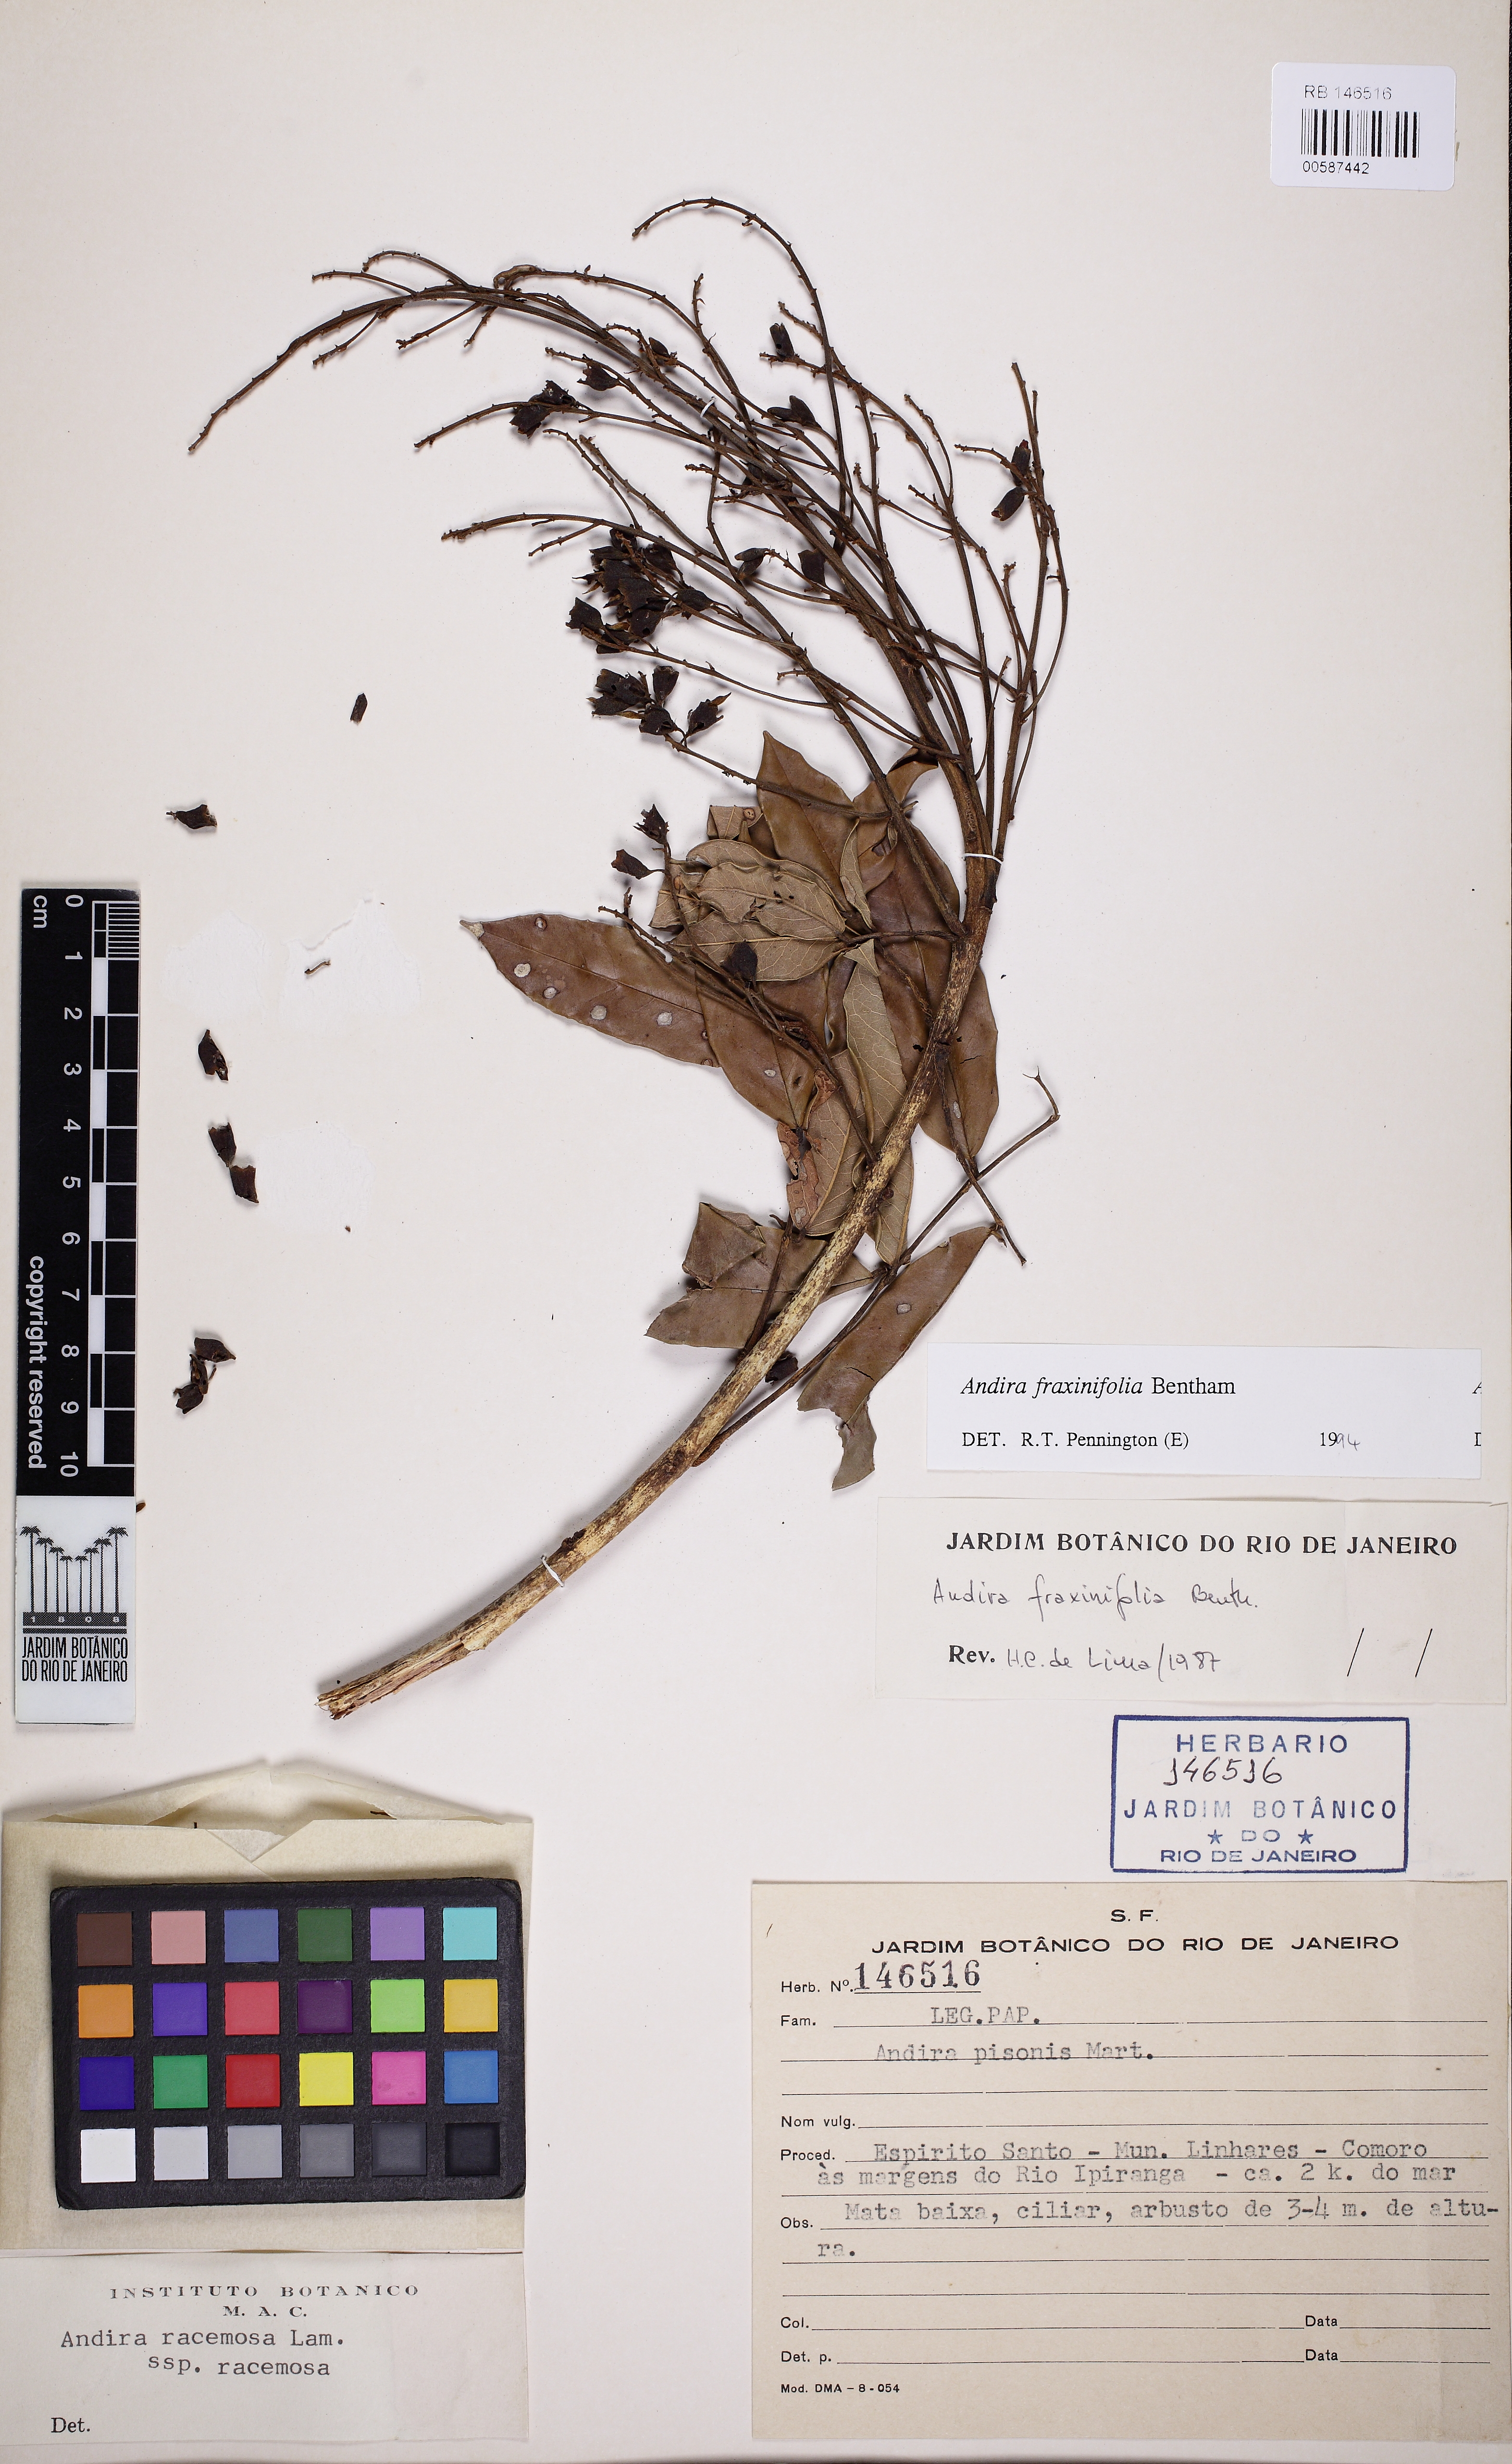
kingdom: Plantae
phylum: Tracheophyta
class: Magnoliopsida
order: Fabales
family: Fabaceae
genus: Andira
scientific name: Andira fraxinifolia
